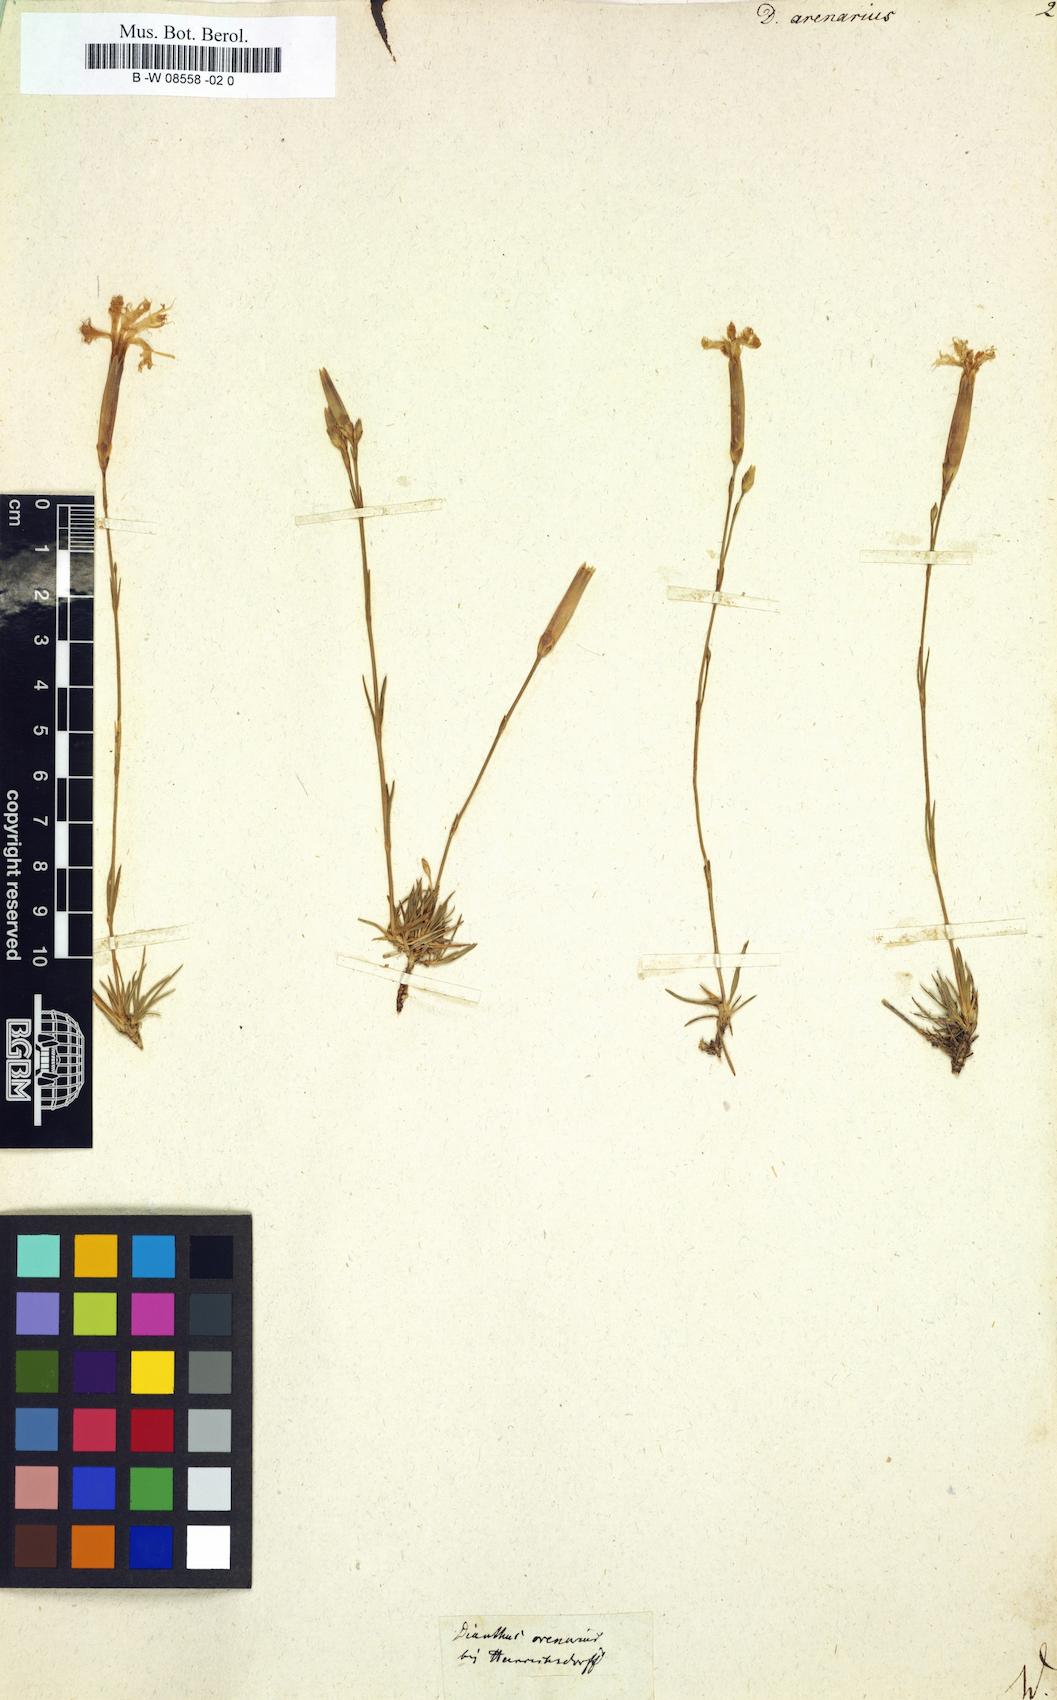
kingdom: Plantae
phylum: Tracheophyta
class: Magnoliopsida
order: Caryophyllales
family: Caryophyllaceae
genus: Dianthus
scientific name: Dianthus arenarius
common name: Stone pink
